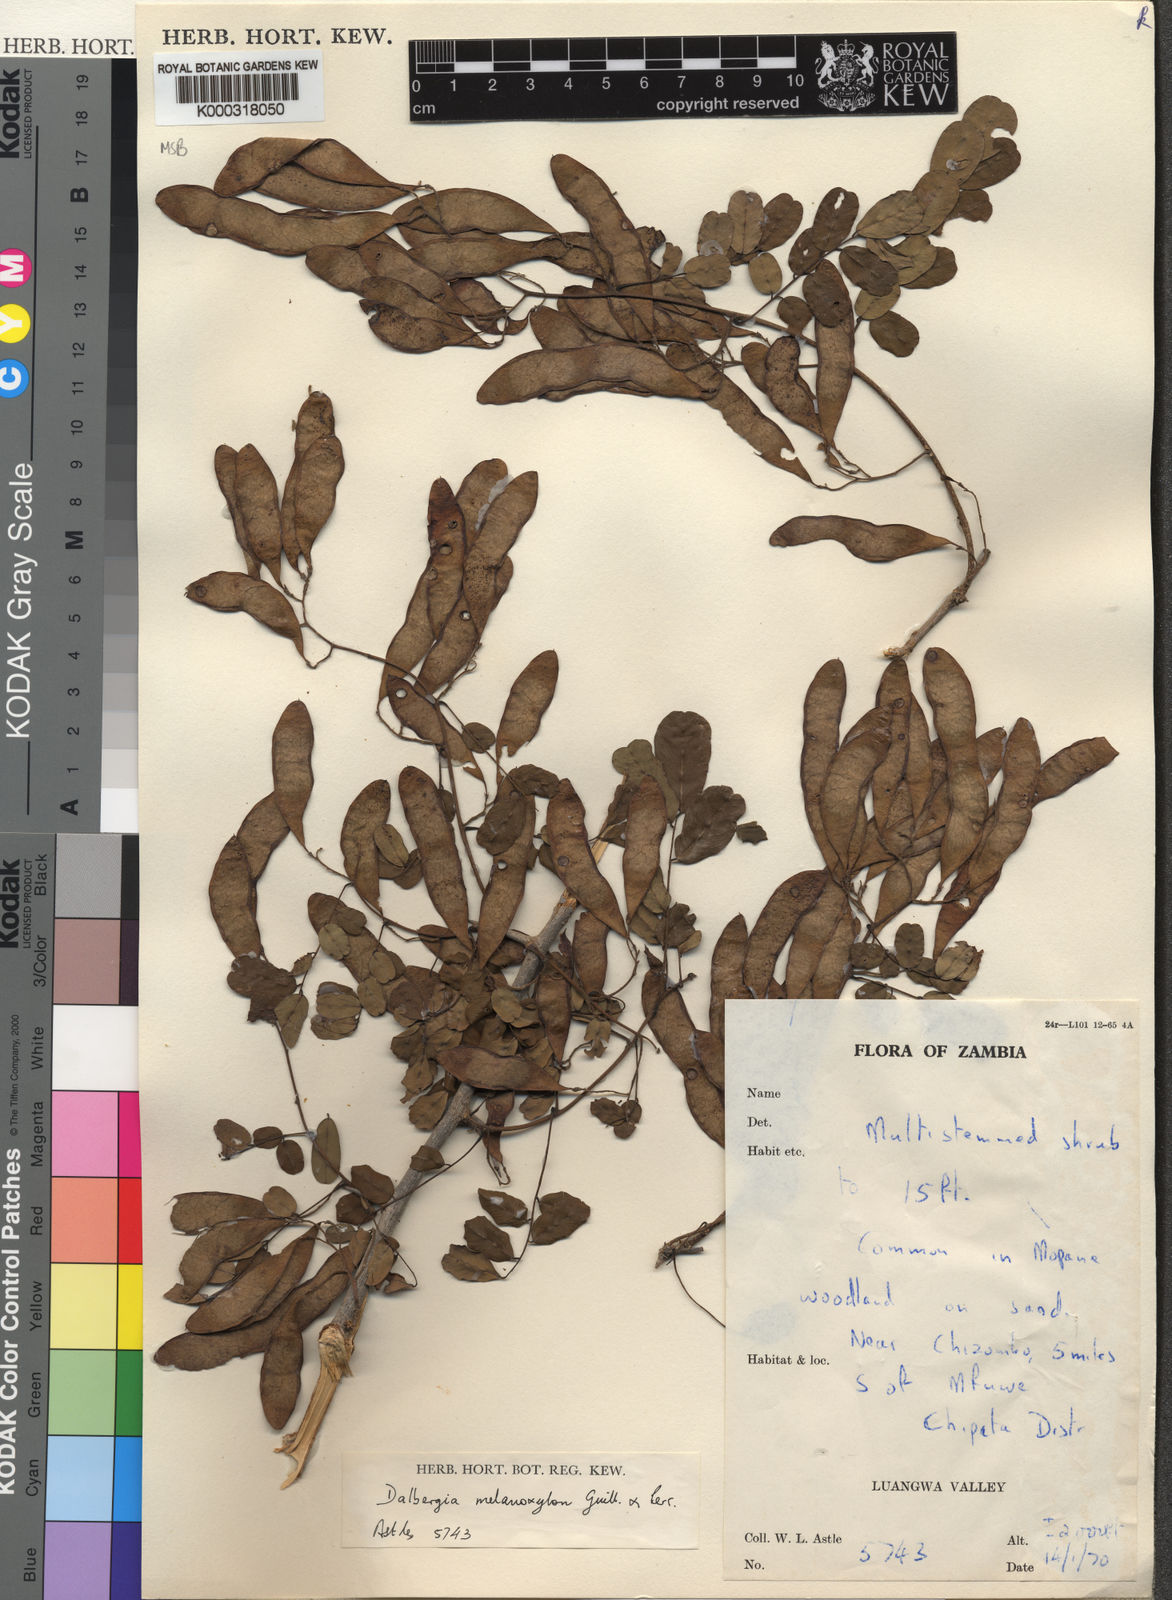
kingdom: Plantae
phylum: Tracheophyta
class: Magnoliopsida
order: Fabales
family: Fabaceae
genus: Dalbergia
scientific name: Dalbergia melanoxylon
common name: African blackwood
